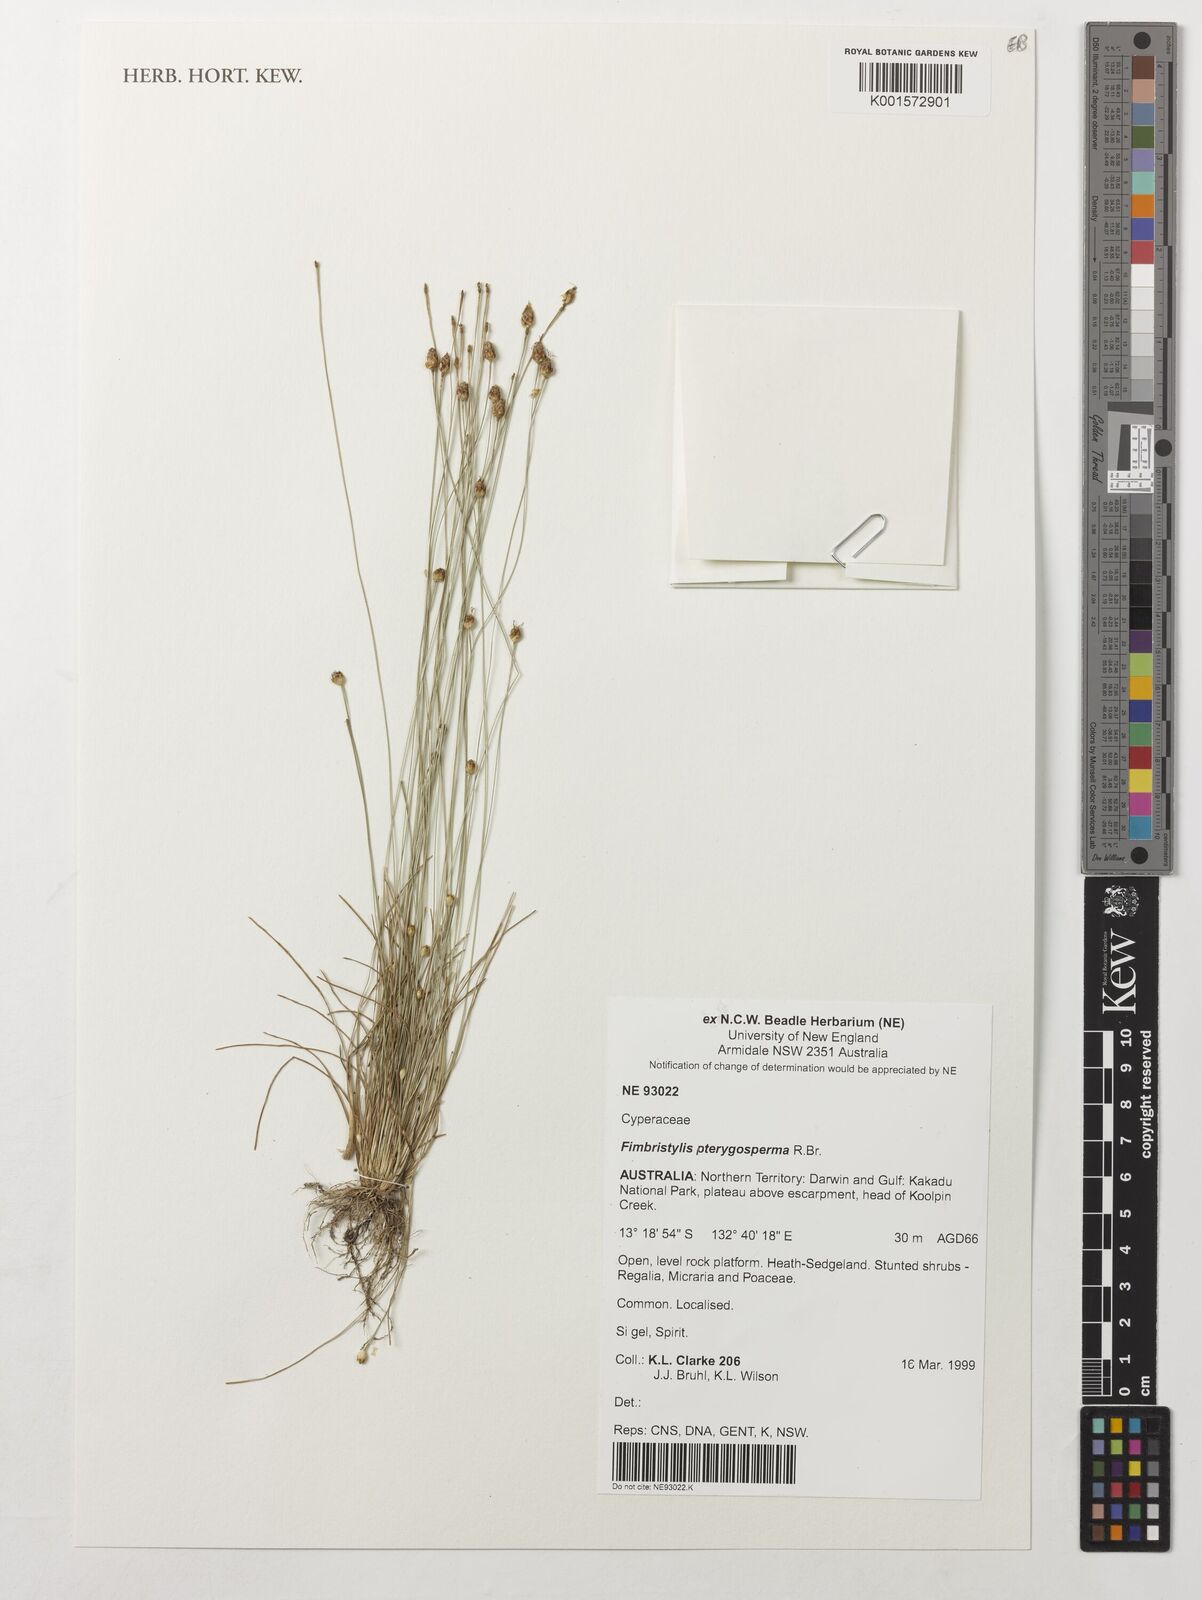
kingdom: Plantae
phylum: Tracheophyta
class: Liliopsida
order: Poales
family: Cyperaceae
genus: Fimbristylis
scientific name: Fimbristylis pterigosperma
